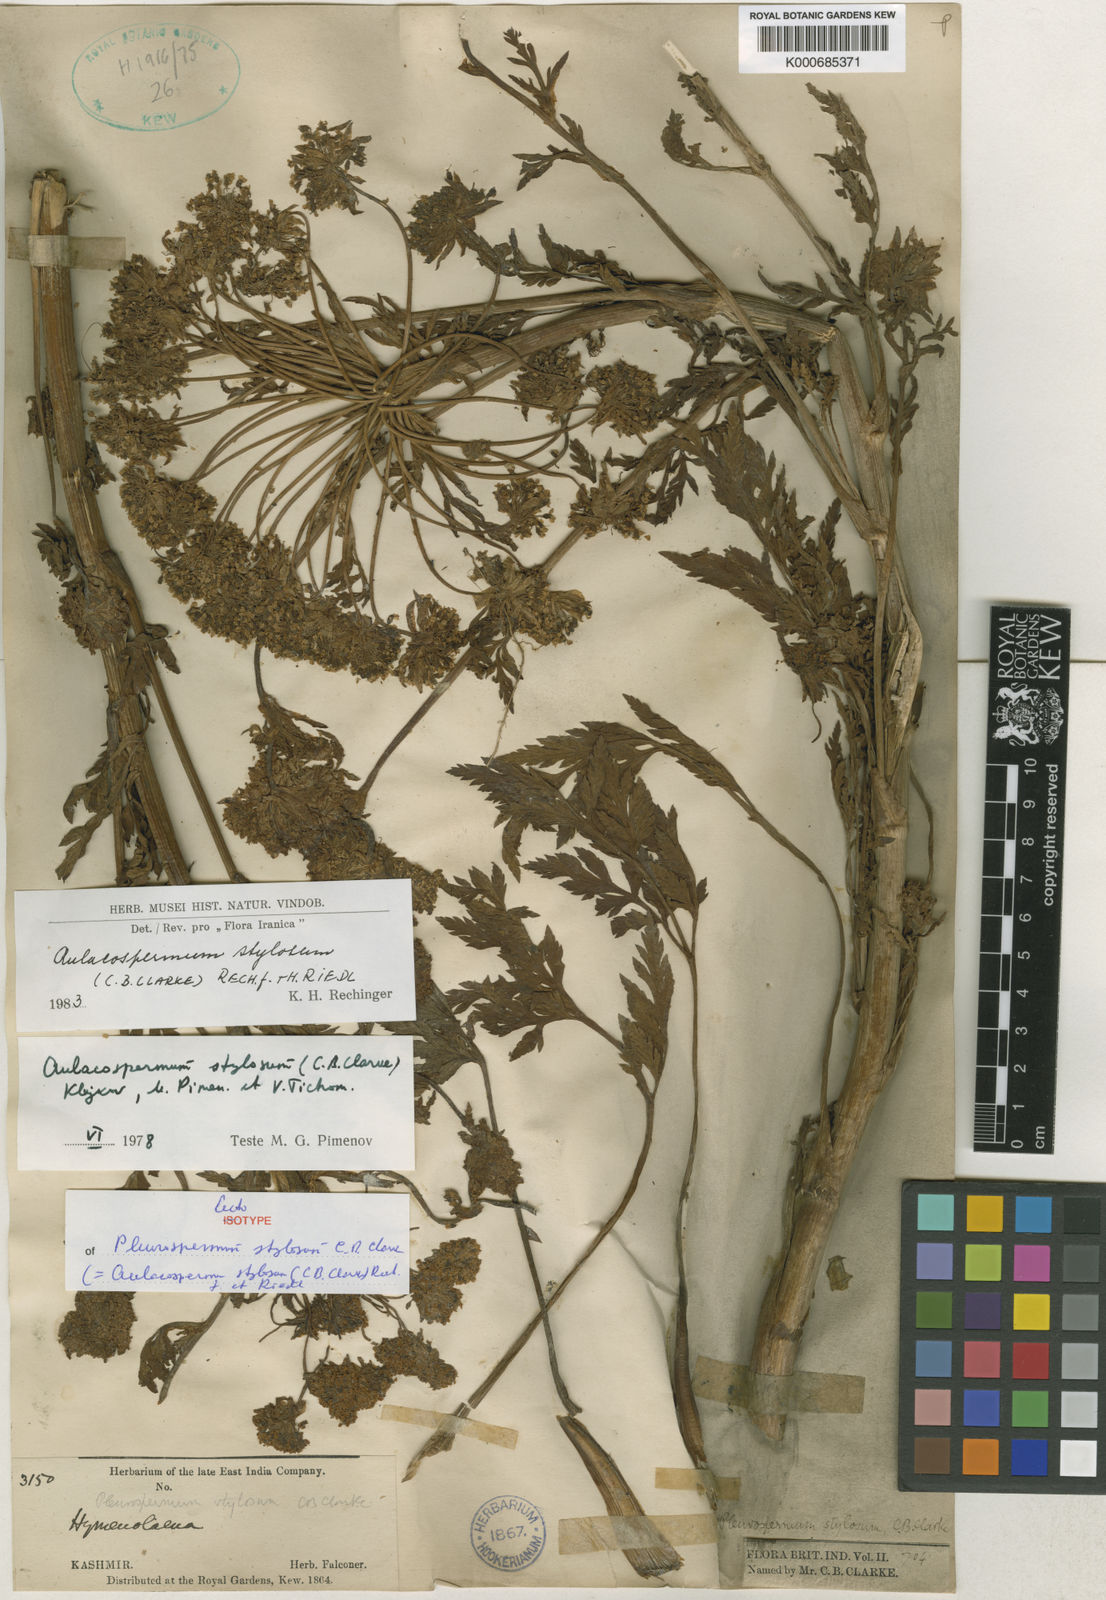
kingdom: Plantae
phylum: Tracheophyta
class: Magnoliopsida
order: Apiales
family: Apiaceae
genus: Aulacospermum
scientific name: Aulacospermum stylosum
